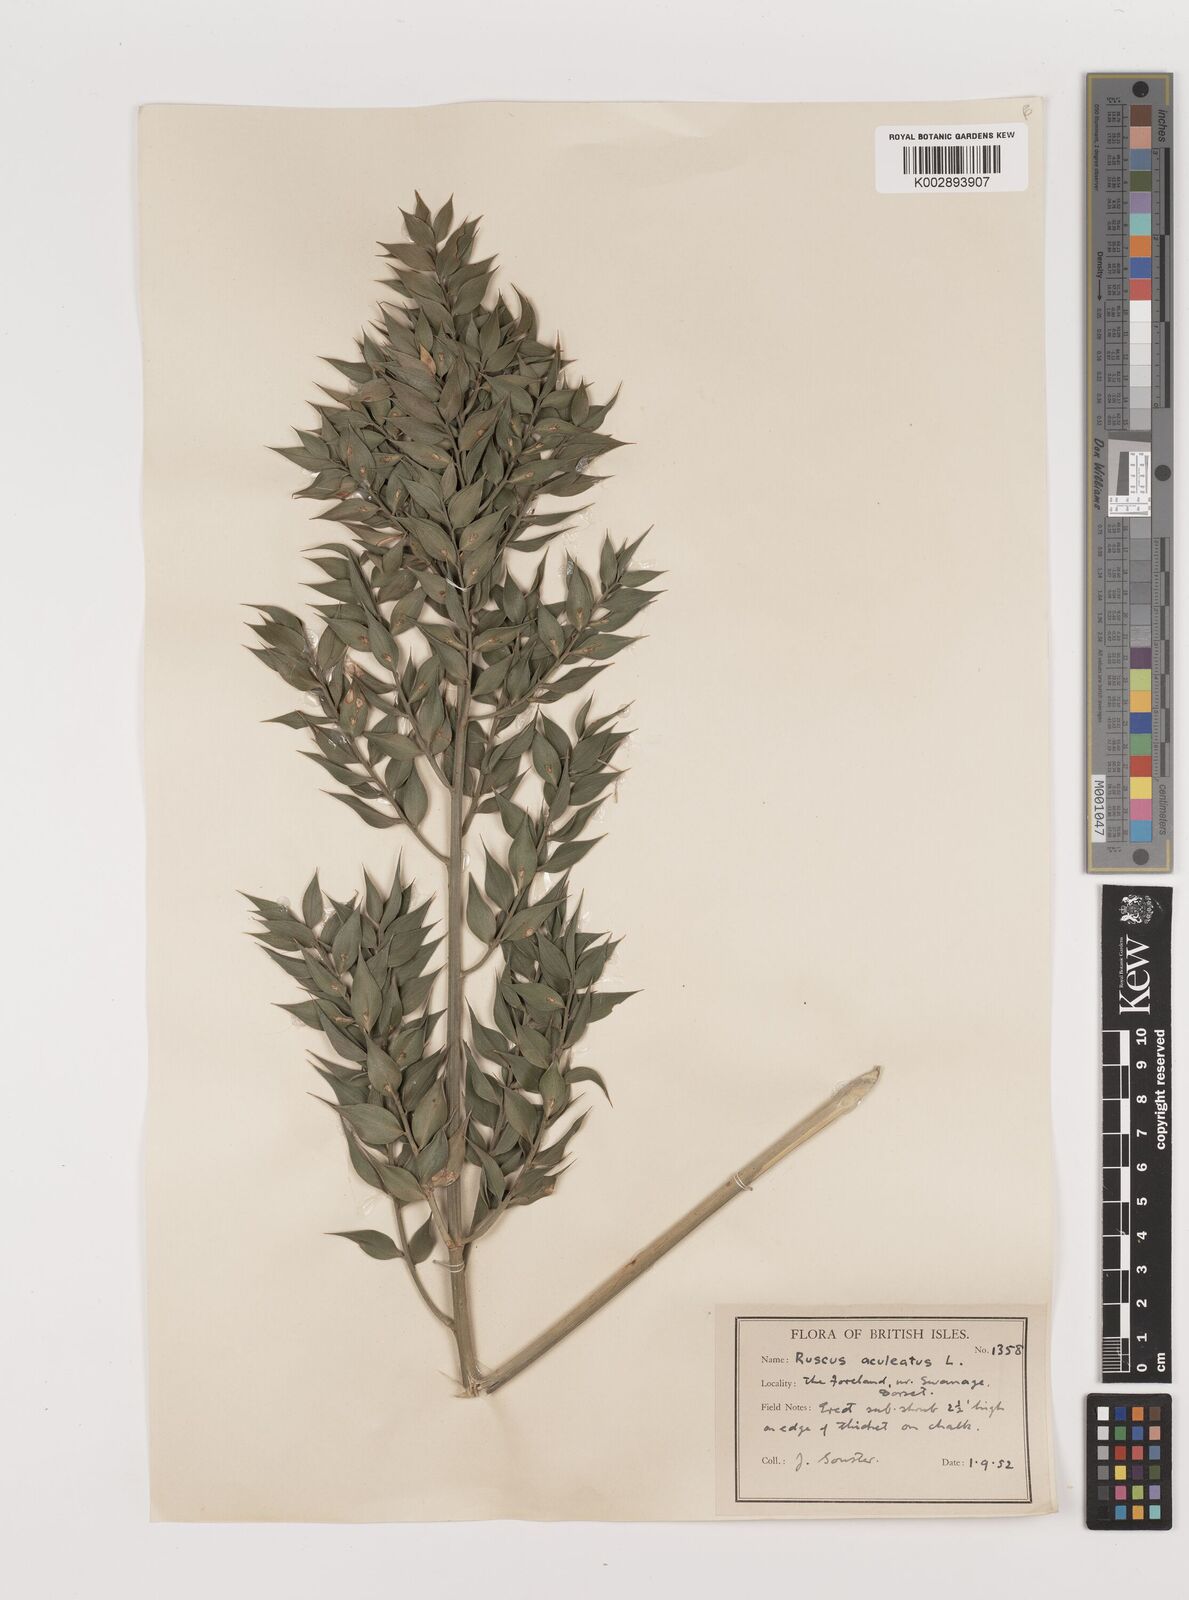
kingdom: Plantae
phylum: Tracheophyta
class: Liliopsida
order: Asparagales
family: Asparagaceae
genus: Ruscus
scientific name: Ruscus aculeatus
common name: Butcher's-broom
